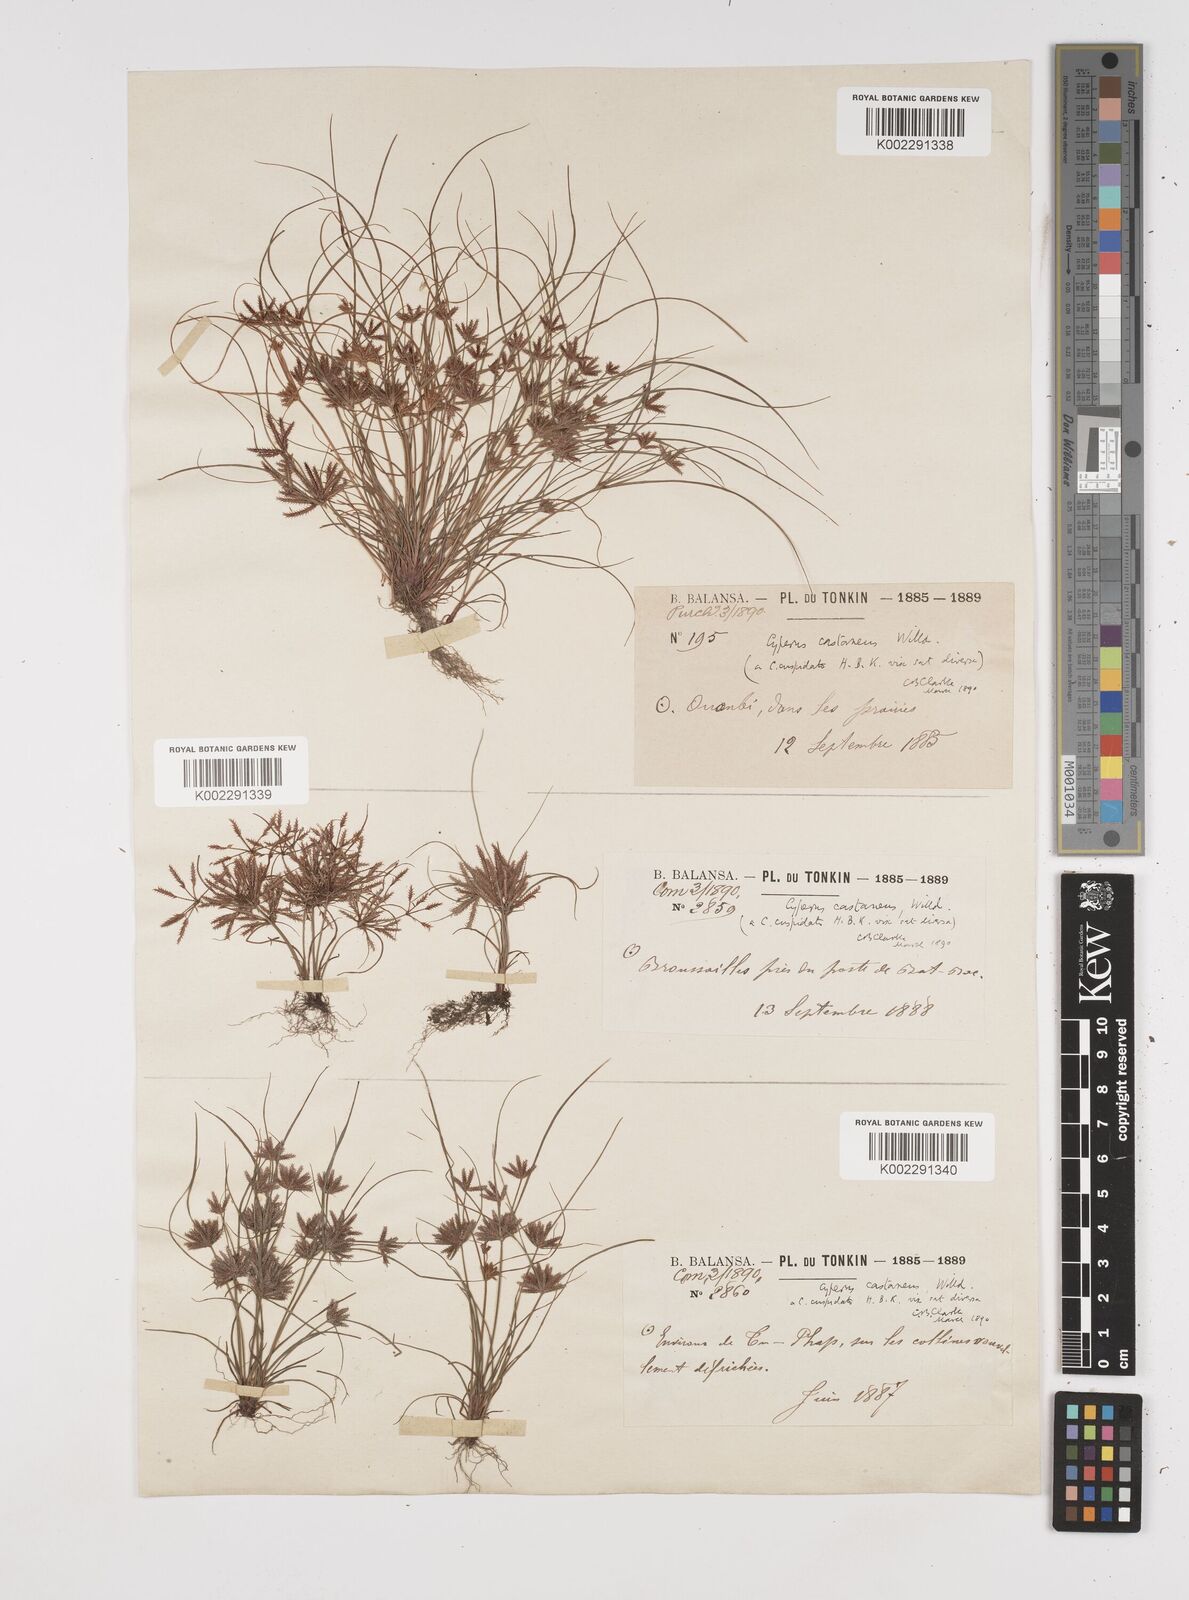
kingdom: Plantae
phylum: Tracheophyta
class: Liliopsida
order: Poales
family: Cyperaceae
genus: Cyperus
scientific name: Cyperus castaneus
